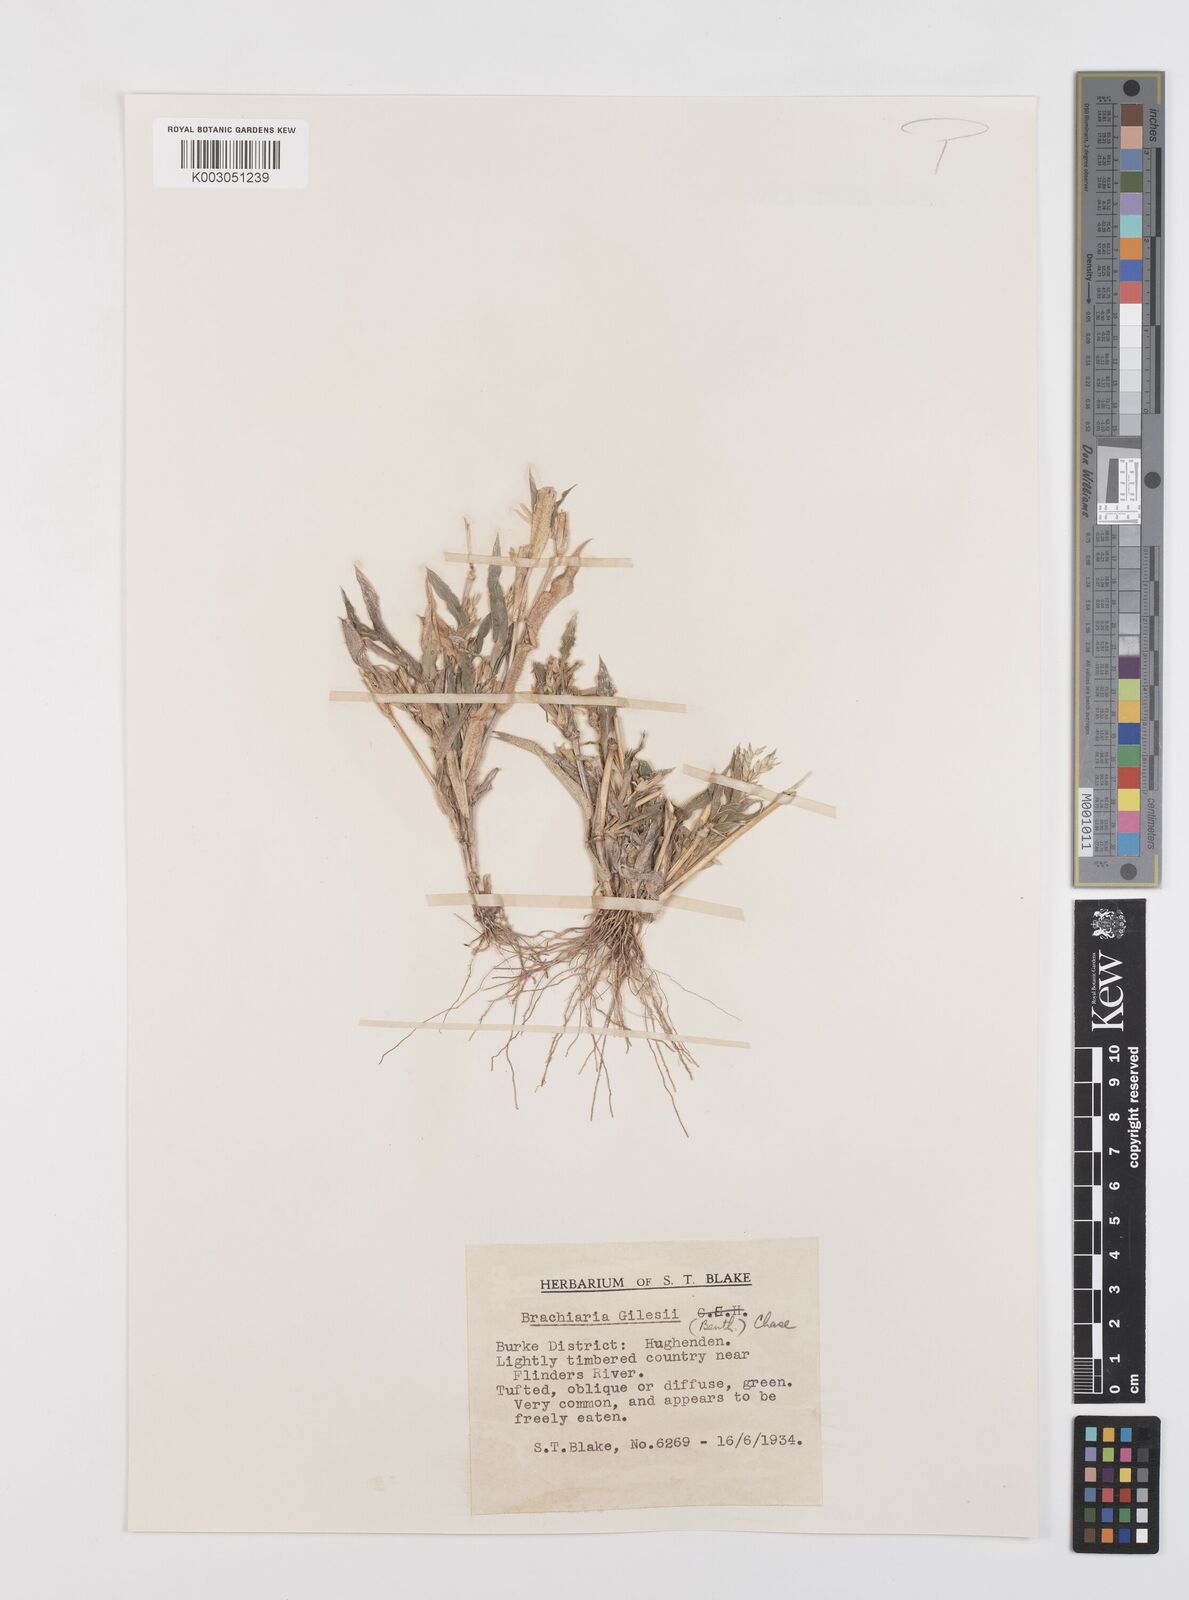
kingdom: Plantae
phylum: Tracheophyta
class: Liliopsida
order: Poales
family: Poaceae
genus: Urochloa
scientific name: Urochloa gilesii
